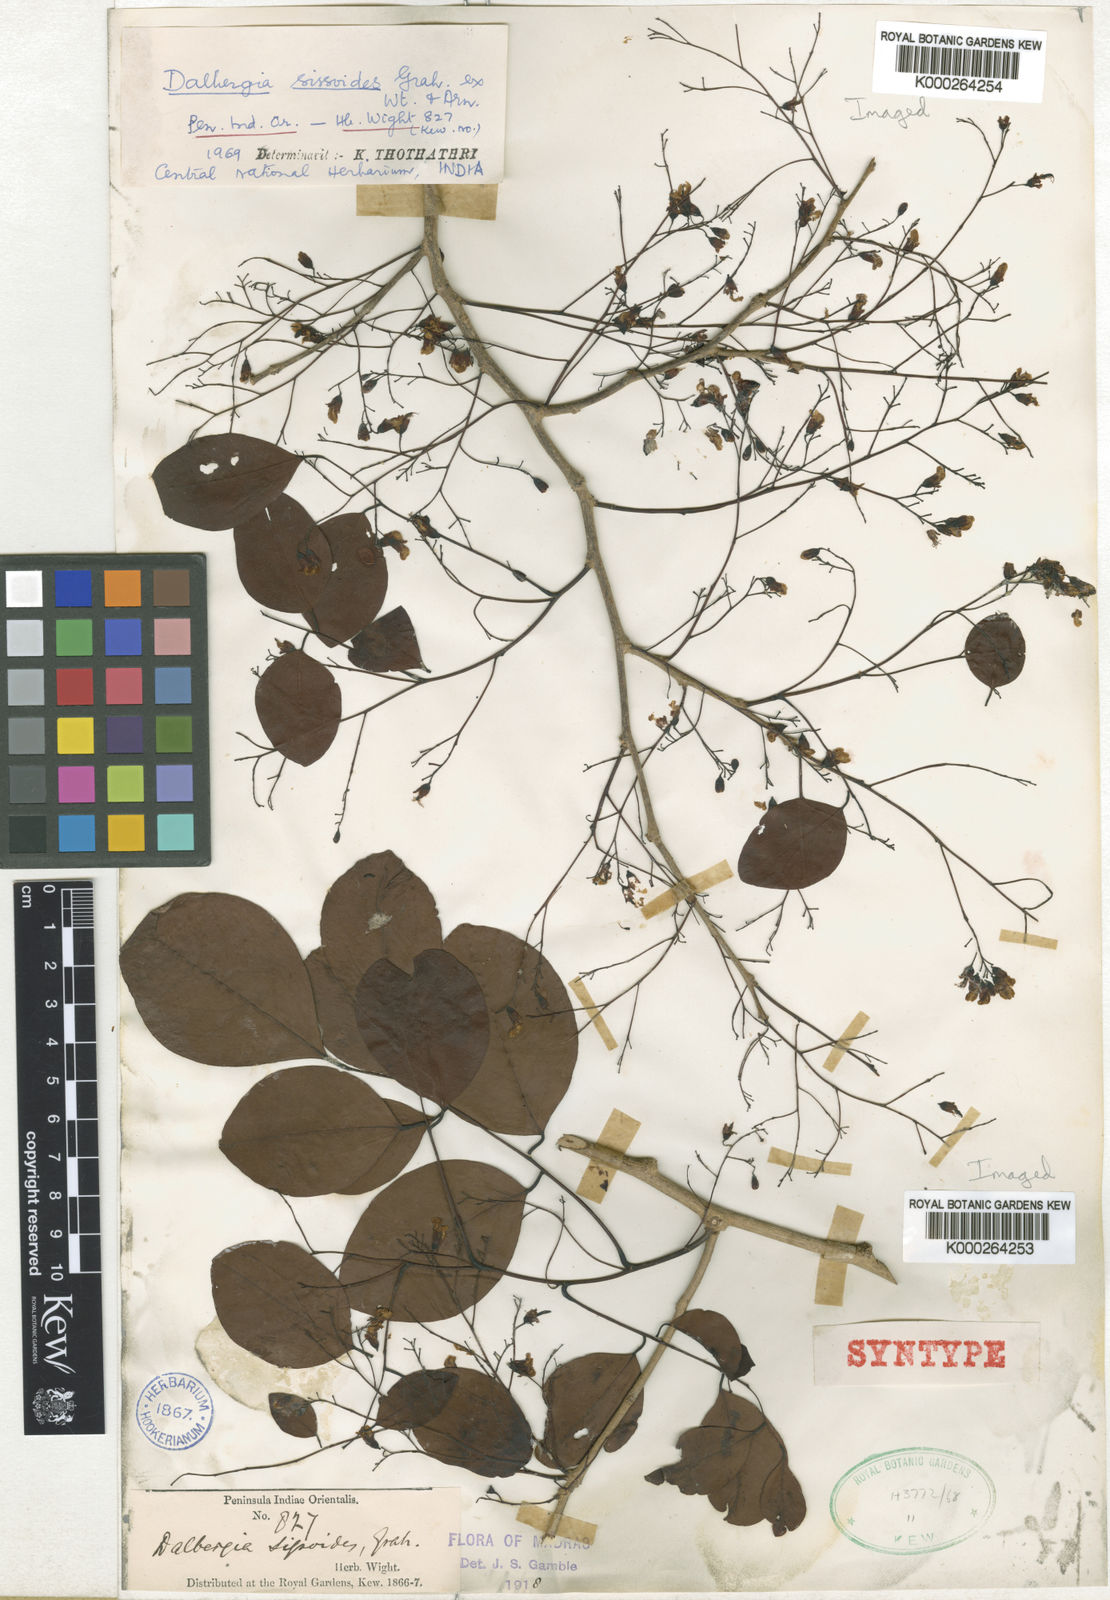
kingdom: Plantae
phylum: Tracheophyta
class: Magnoliopsida
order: Fabales
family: Fabaceae
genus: Dalbergia
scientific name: Dalbergia
